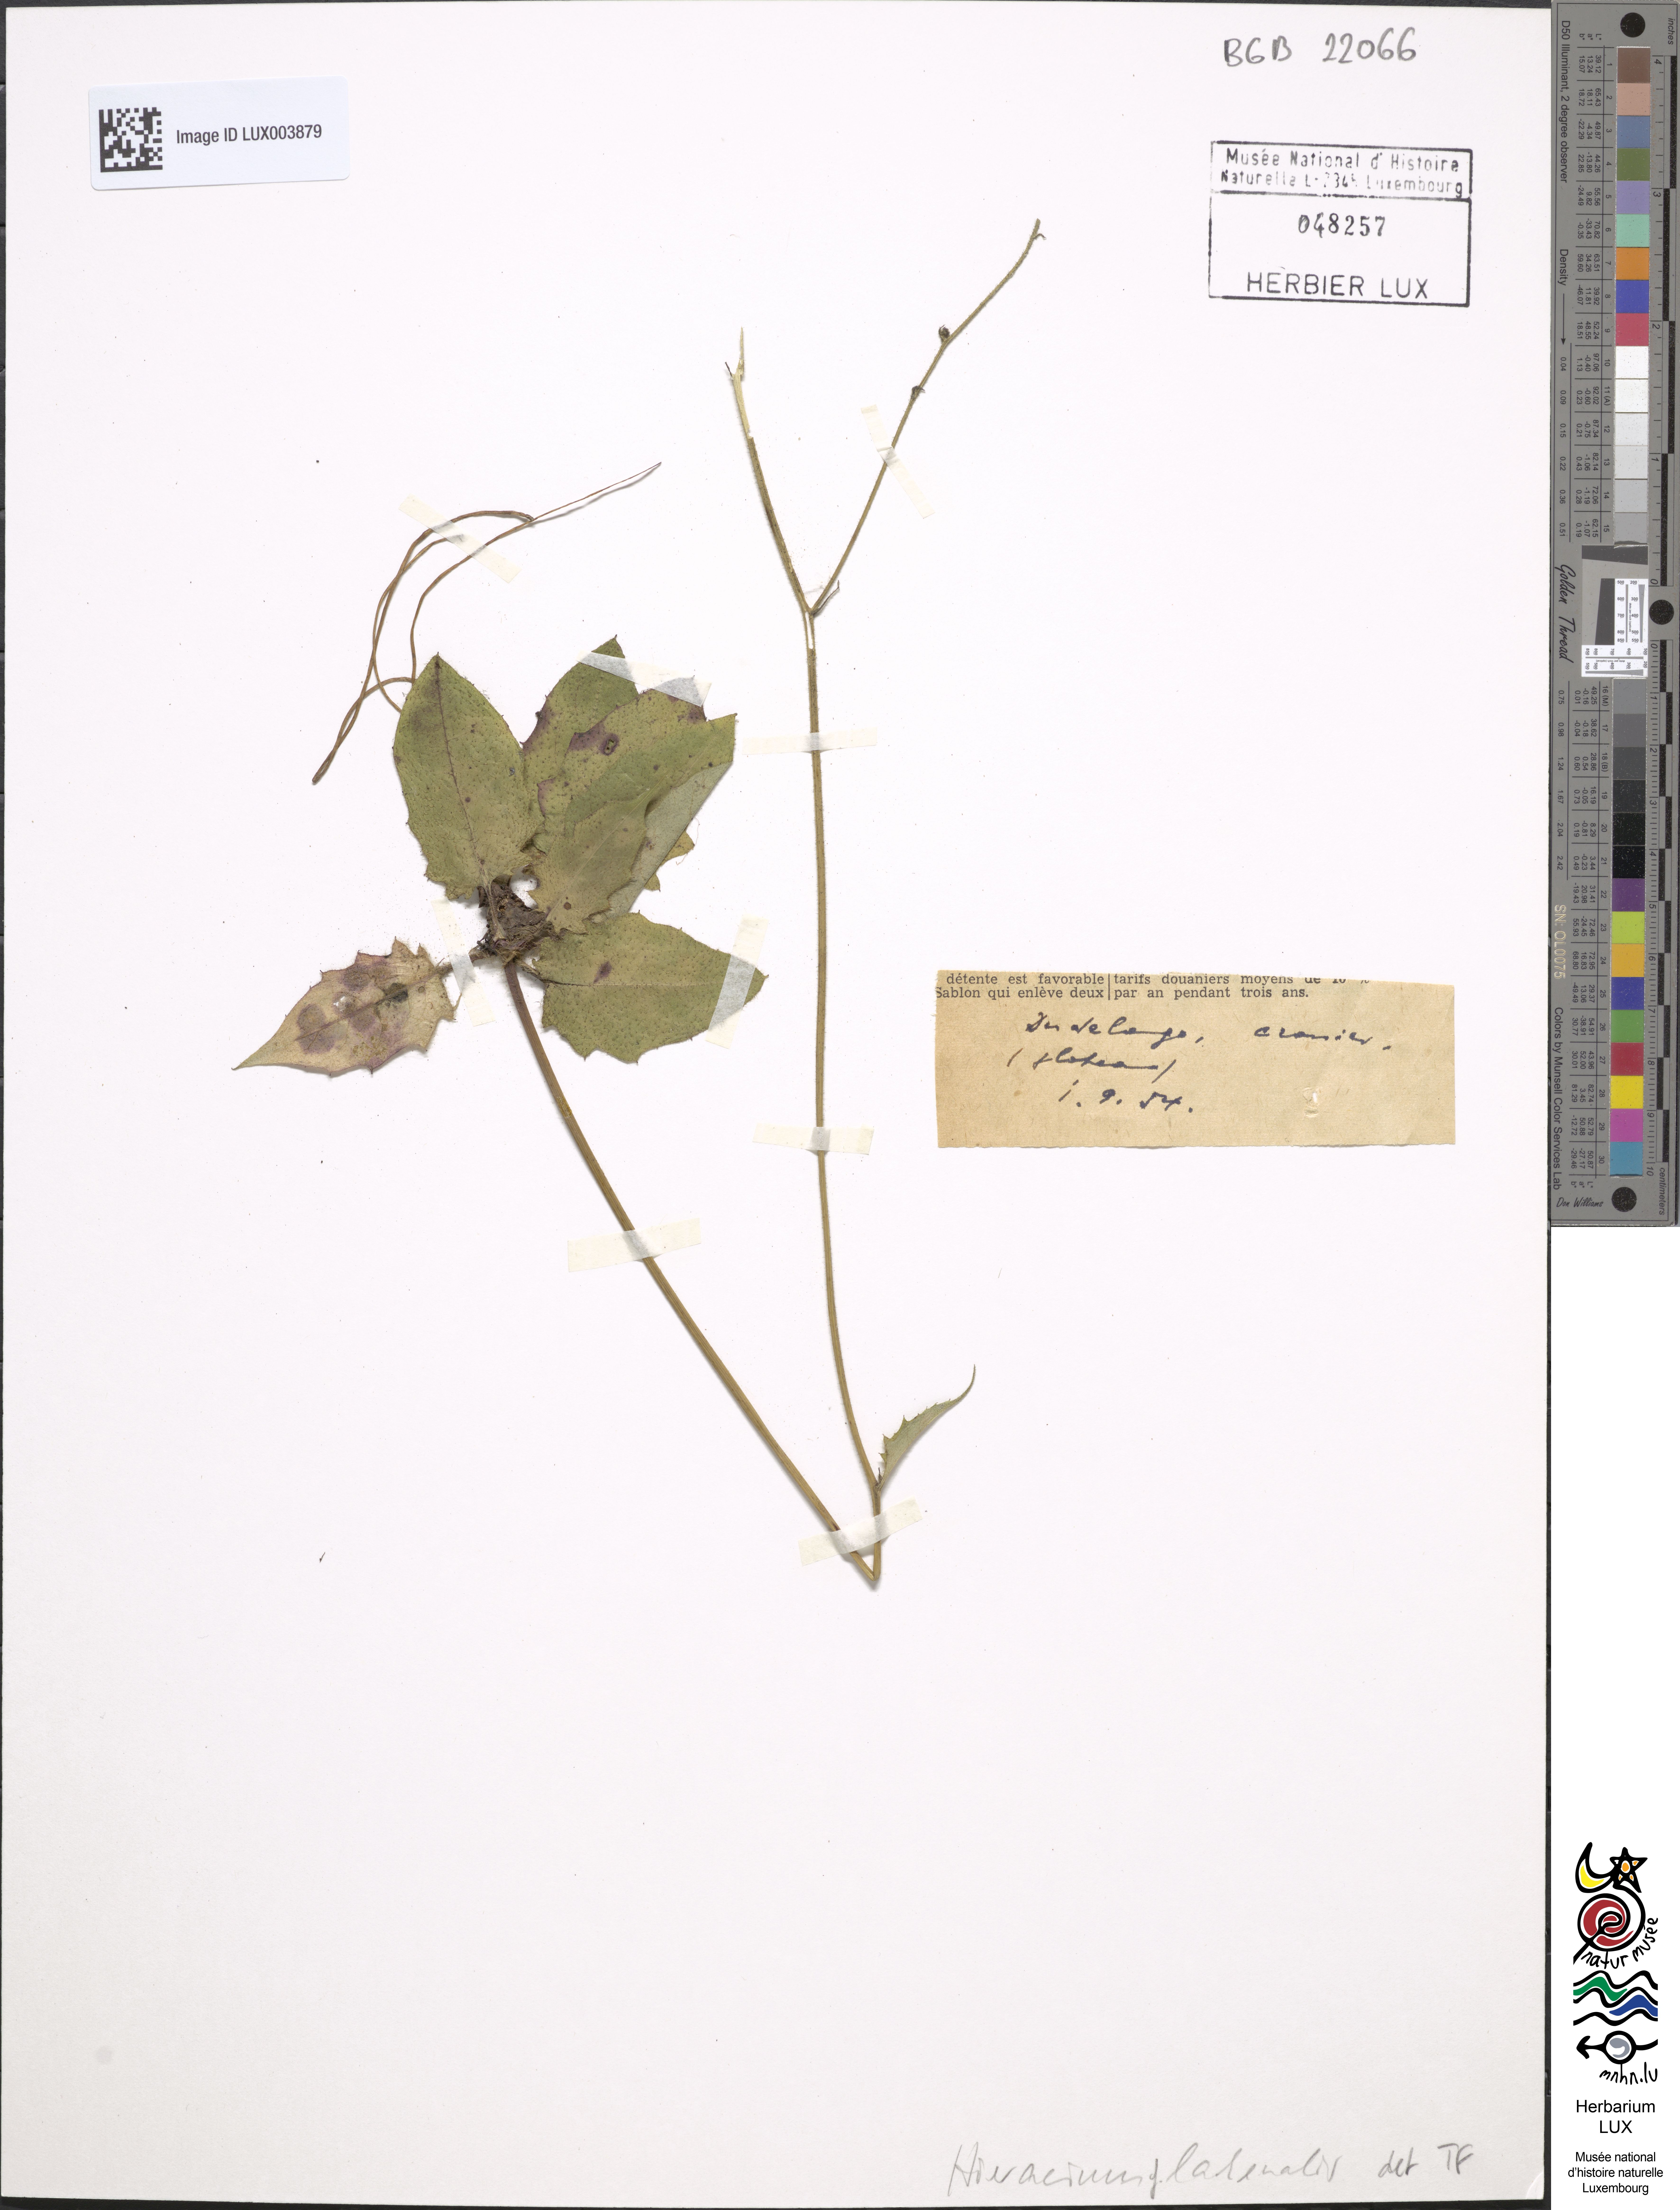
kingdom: Plantae
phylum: Tracheophyta
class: Magnoliopsida
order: Asterales
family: Asteraceae
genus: Hieracium
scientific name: Hieracium lachenalii
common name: Common hawkweed
